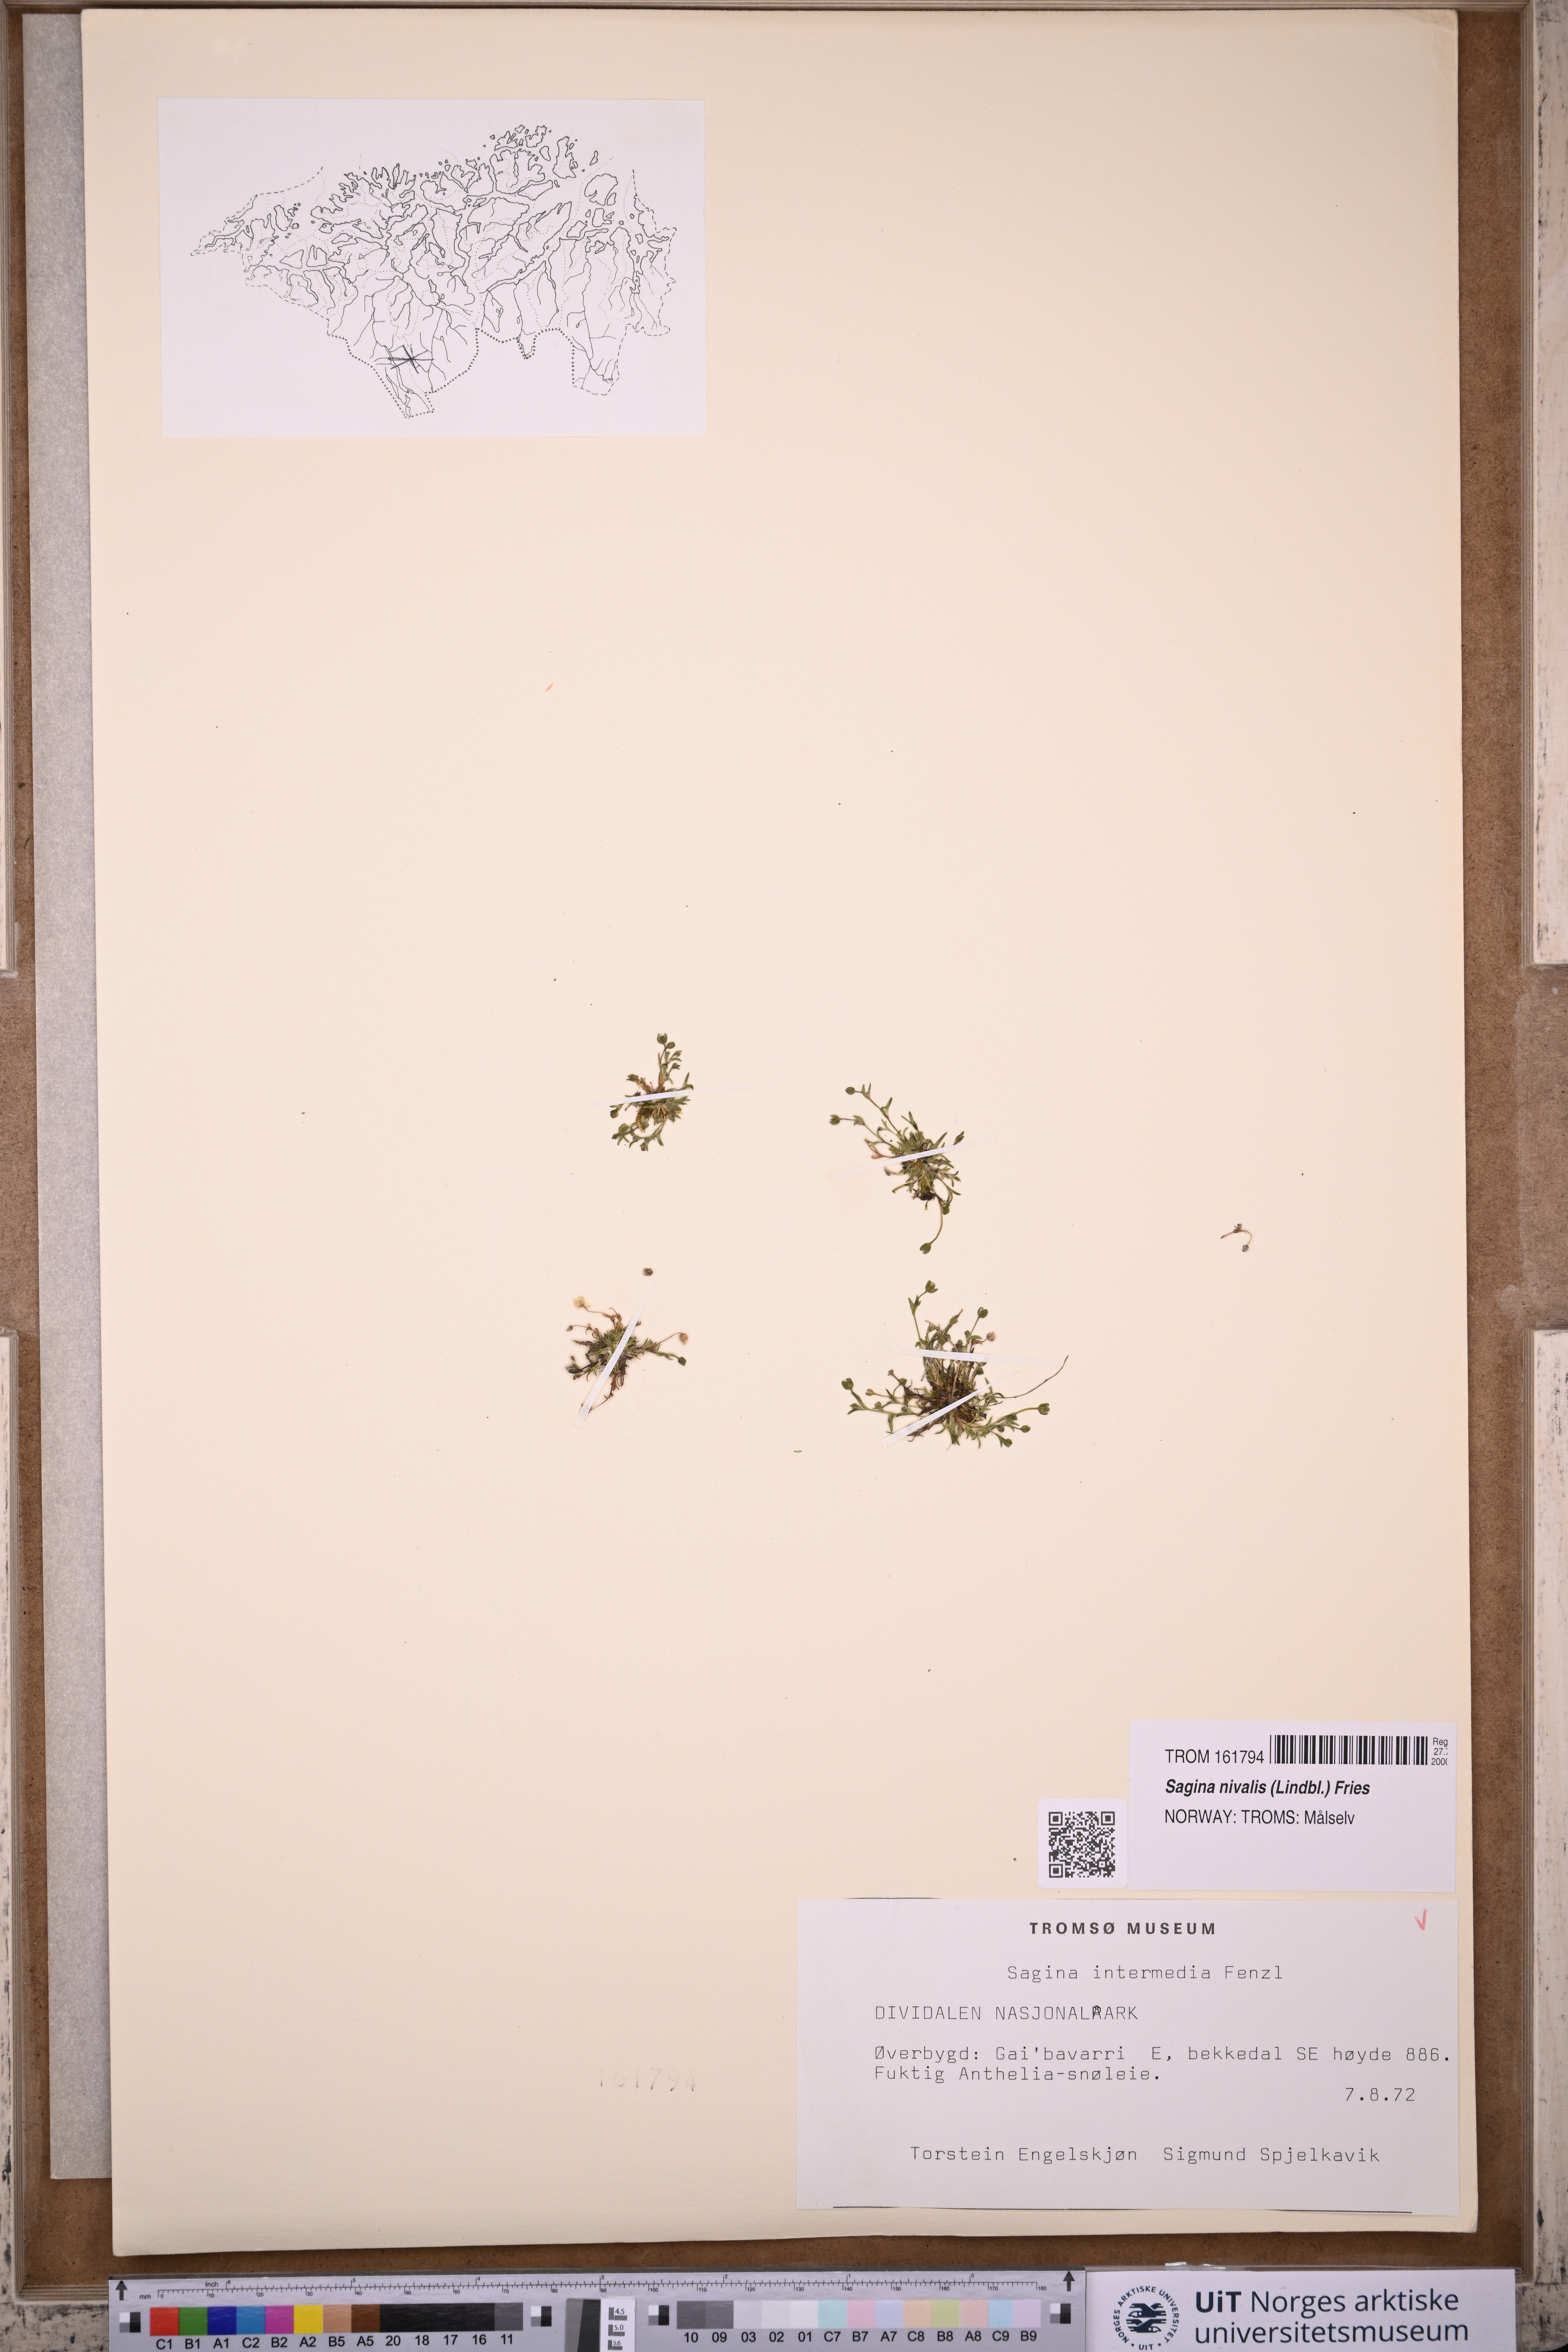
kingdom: Plantae
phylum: Tracheophyta
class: Magnoliopsida
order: Caryophyllales
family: Caryophyllaceae
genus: Sagina
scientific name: Sagina nivalis
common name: Snow pearlwort
